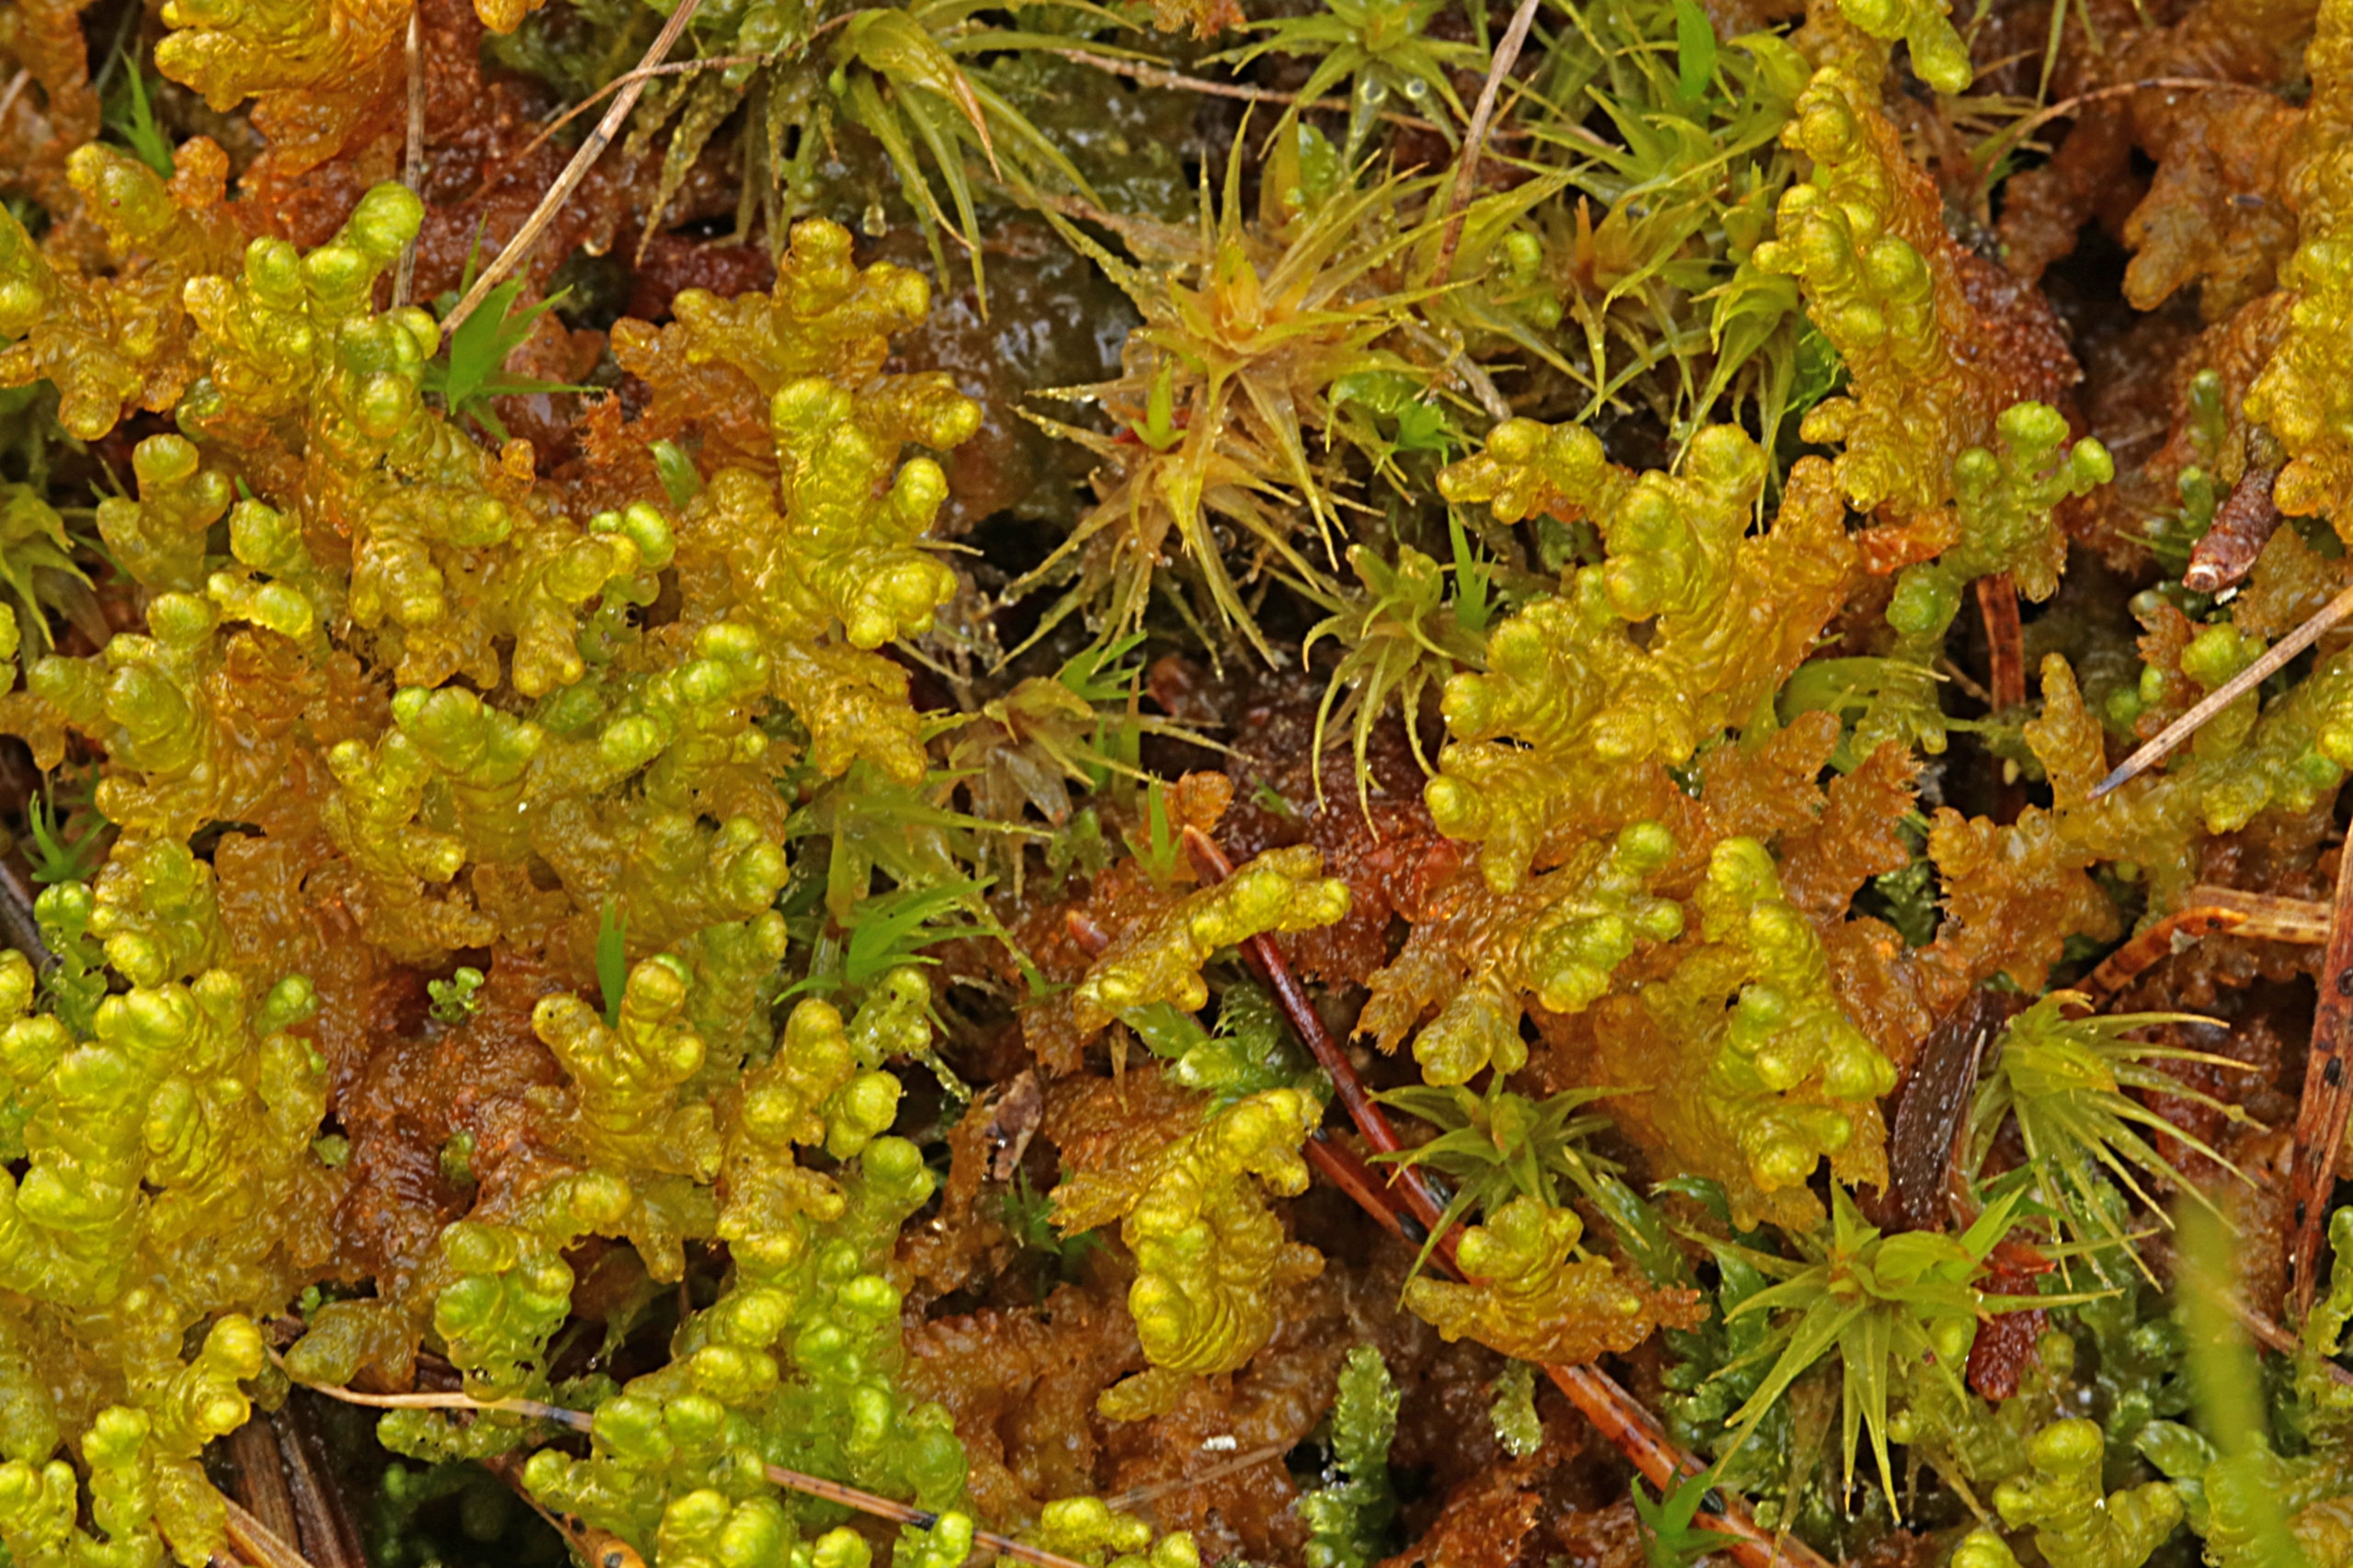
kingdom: Plantae
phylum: Marchantiophyta
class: Jungermanniopsida
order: Ptilidiales
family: Ptilidiaceae
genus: Ptilidium
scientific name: Ptilidium ciliare
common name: Almindelig frynsemos
